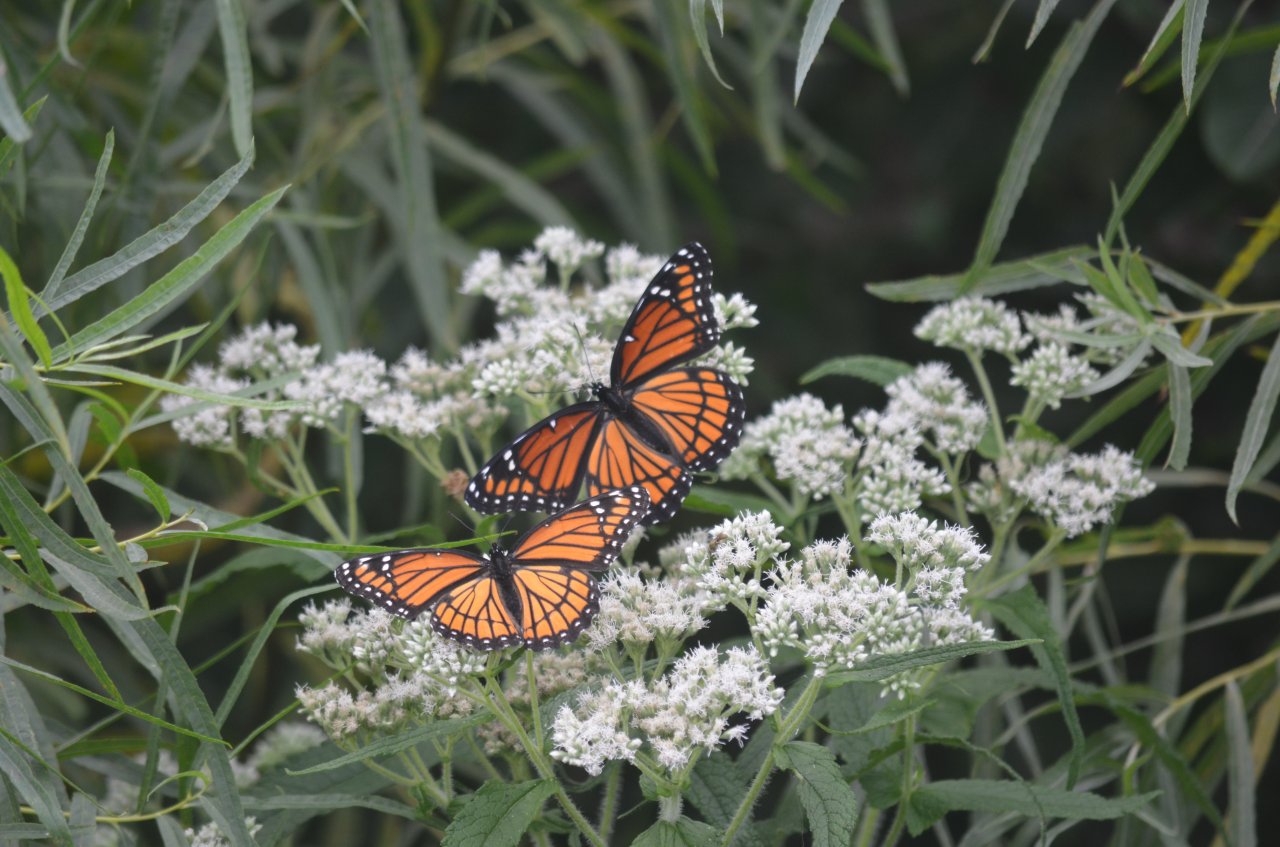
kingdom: Animalia
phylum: Arthropoda
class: Insecta
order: Lepidoptera
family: Nymphalidae
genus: Limenitis
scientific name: Limenitis archippus
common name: Viceroy
